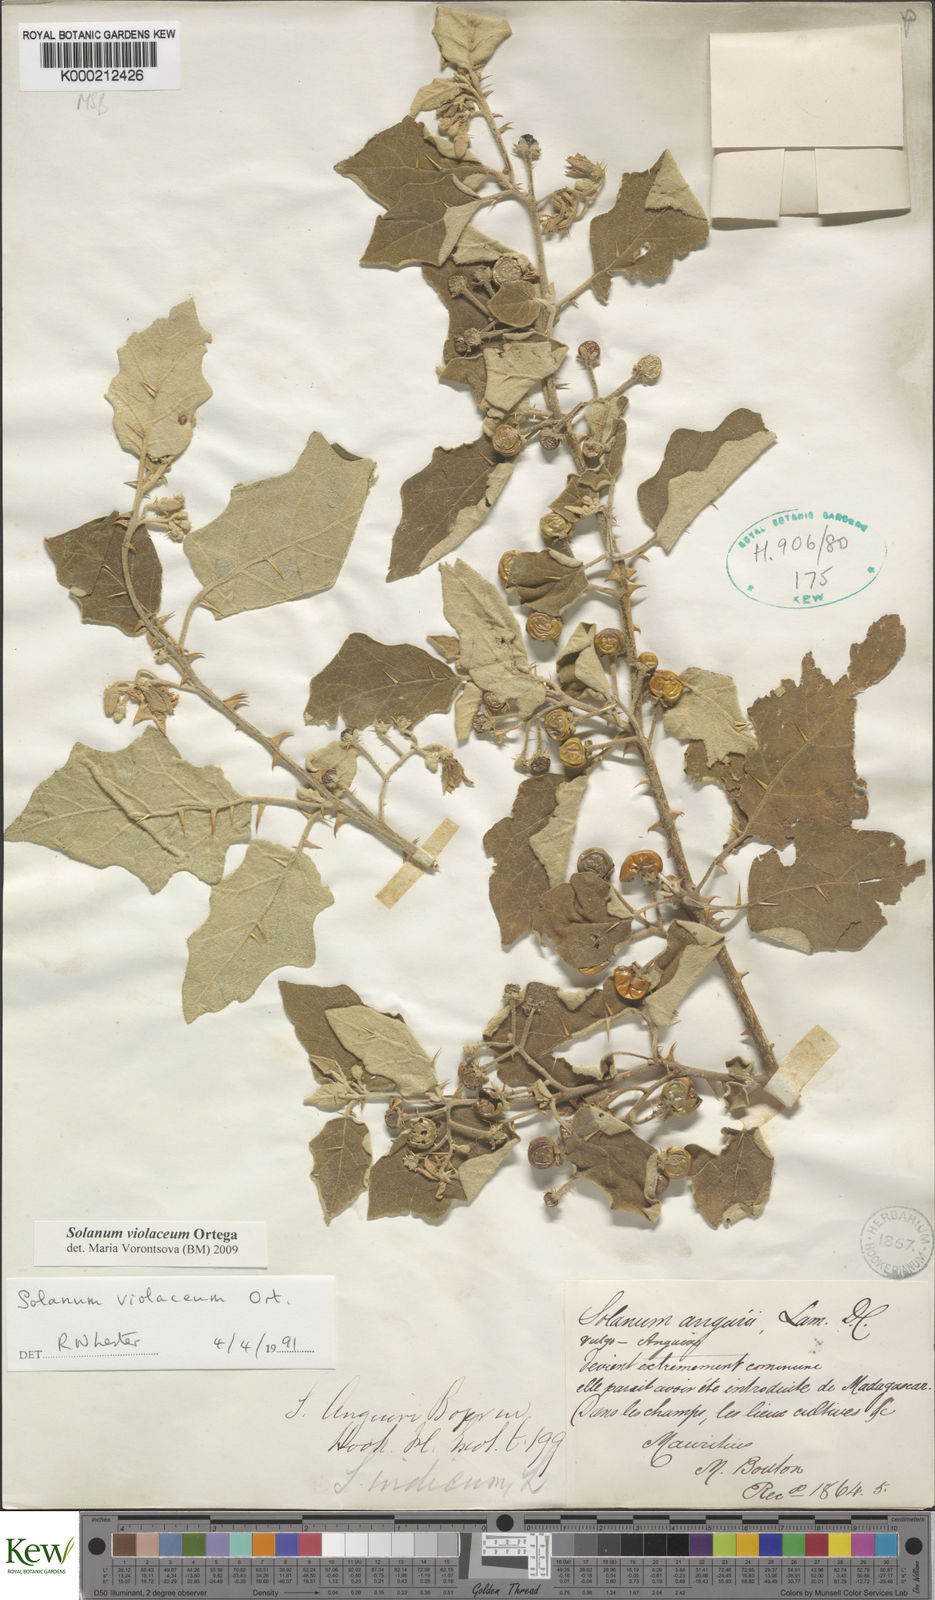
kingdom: Plantae
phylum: Tracheophyta
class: Magnoliopsida
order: Solanales
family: Solanaceae
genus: Solanum
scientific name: Solanum violaceum
